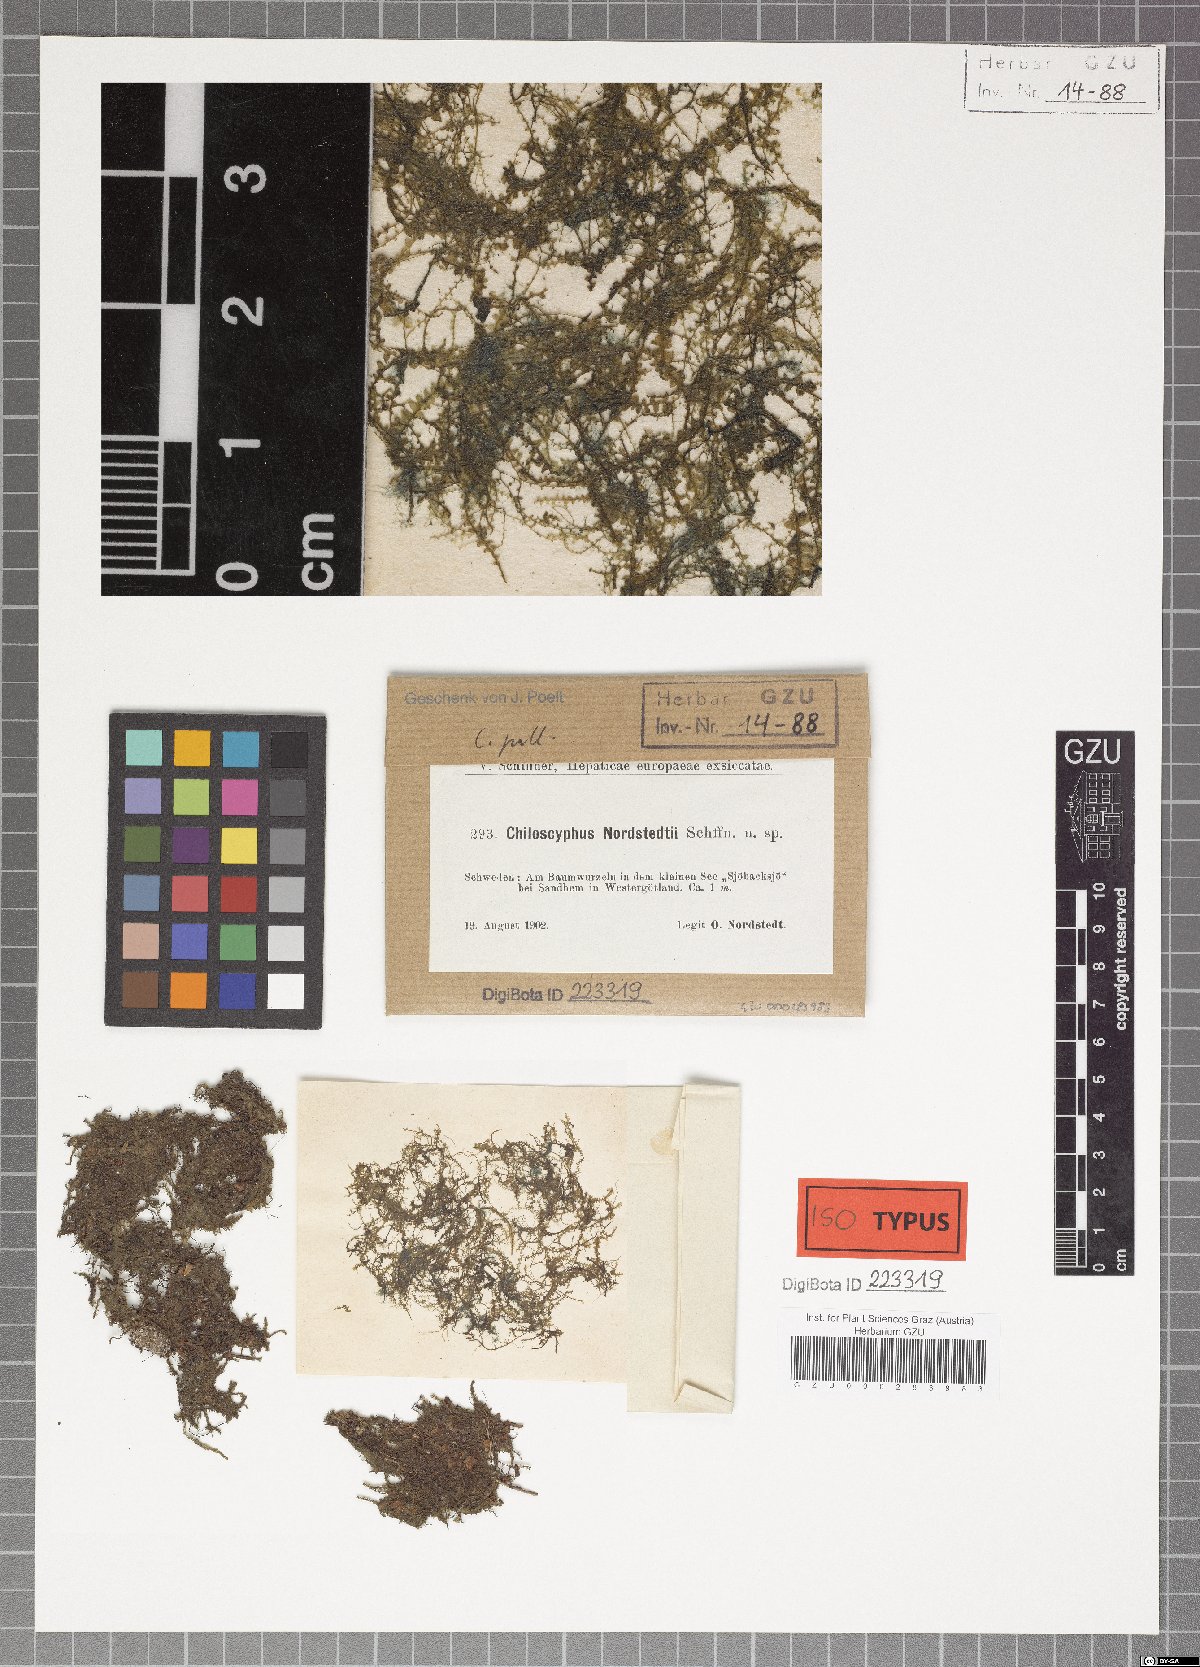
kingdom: Plantae
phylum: Marchantiophyta
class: Jungermanniopsida
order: Jungermanniales
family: Lophocoleaceae
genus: Chiloscyphus
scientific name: Chiloscyphus pallescens
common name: St winifrid's other moss
